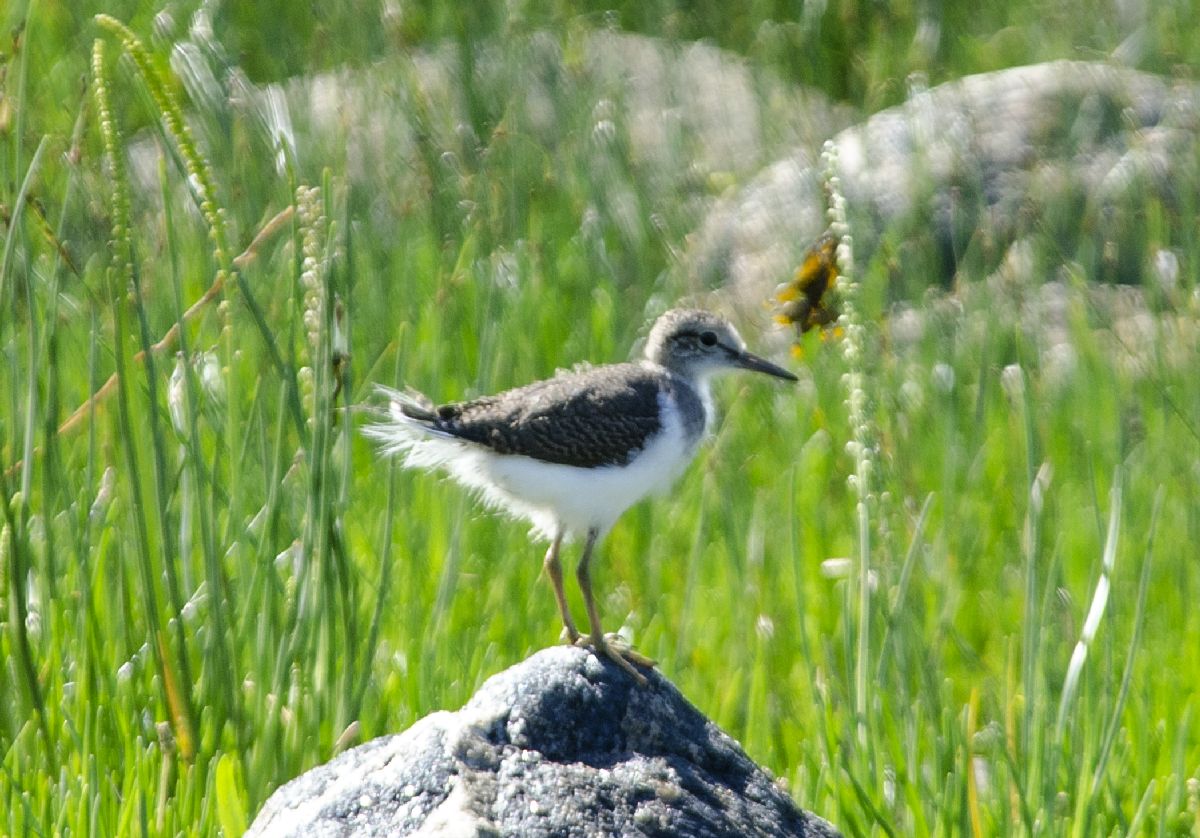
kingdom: Animalia
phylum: Chordata
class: Aves
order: Charadriiformes
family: Scolopacidae
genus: Actitis
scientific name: Actitis hypoleucos
